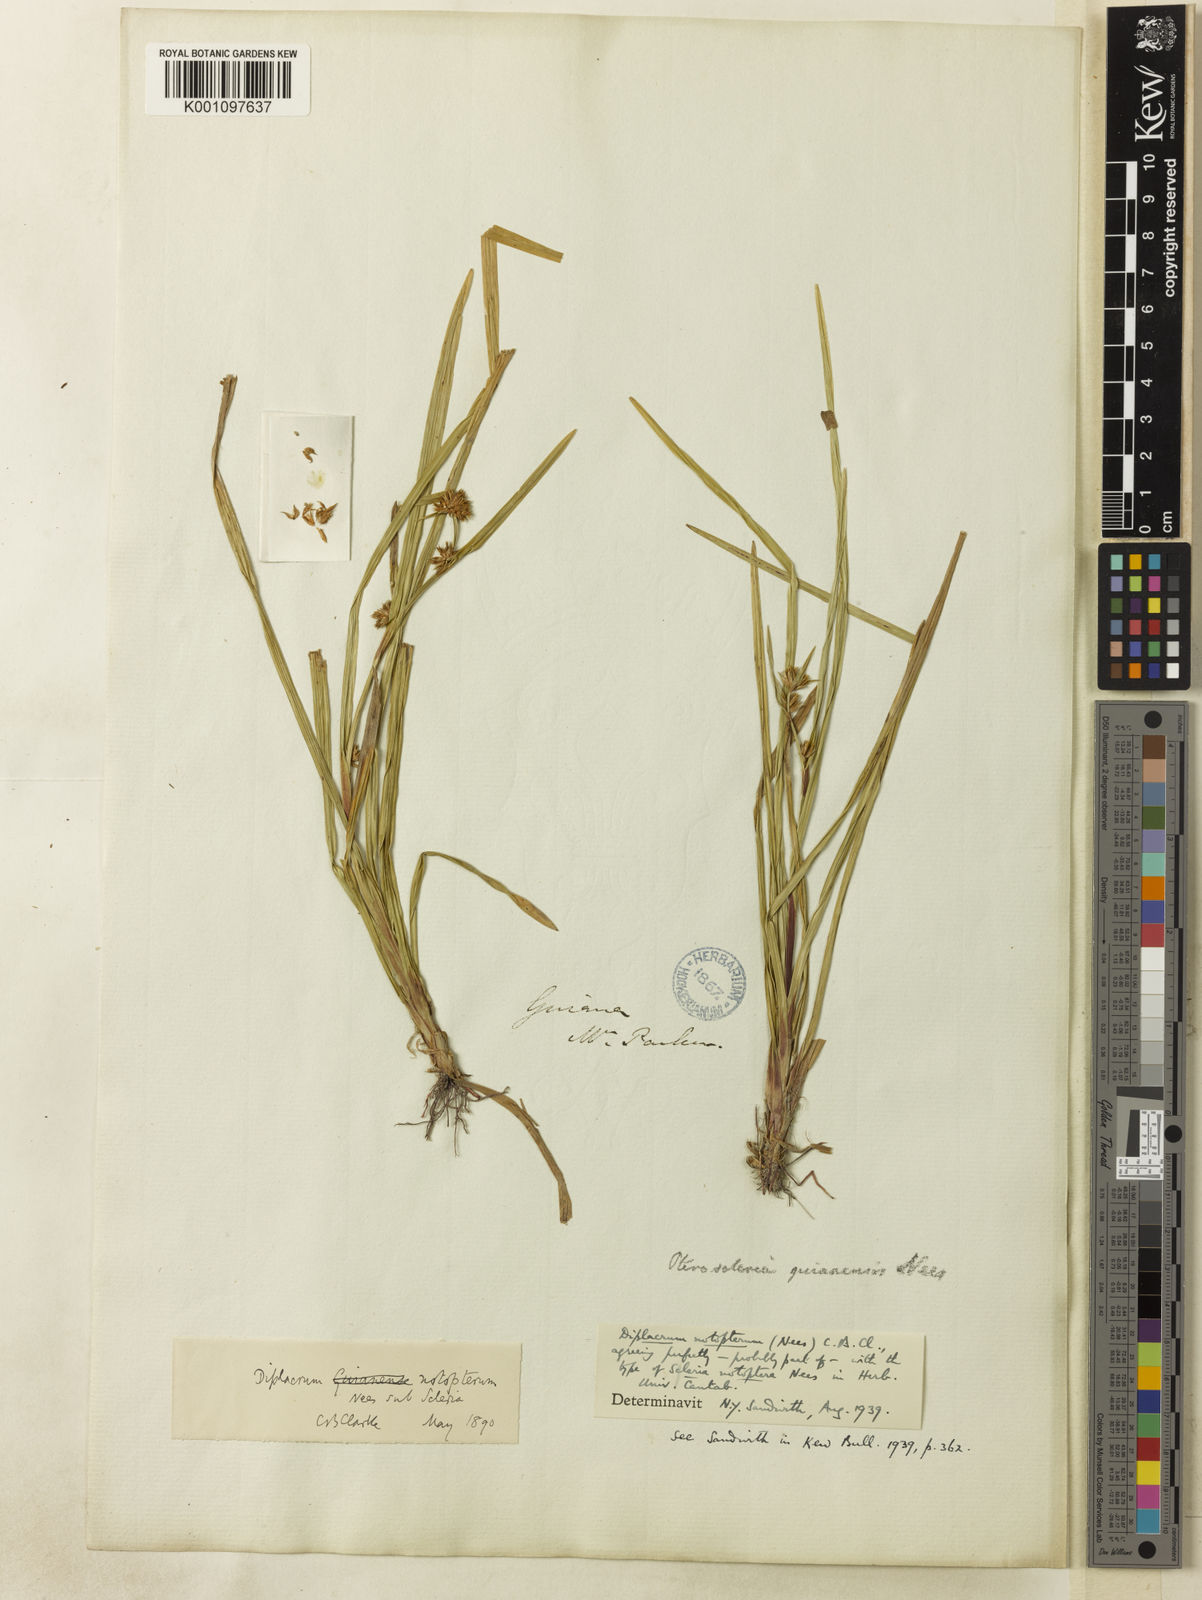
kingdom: Plantae
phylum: Tracheophyta
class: Liliopsida
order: Poales
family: Cyperaceae
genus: Diplacrum
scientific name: Diplacrum
